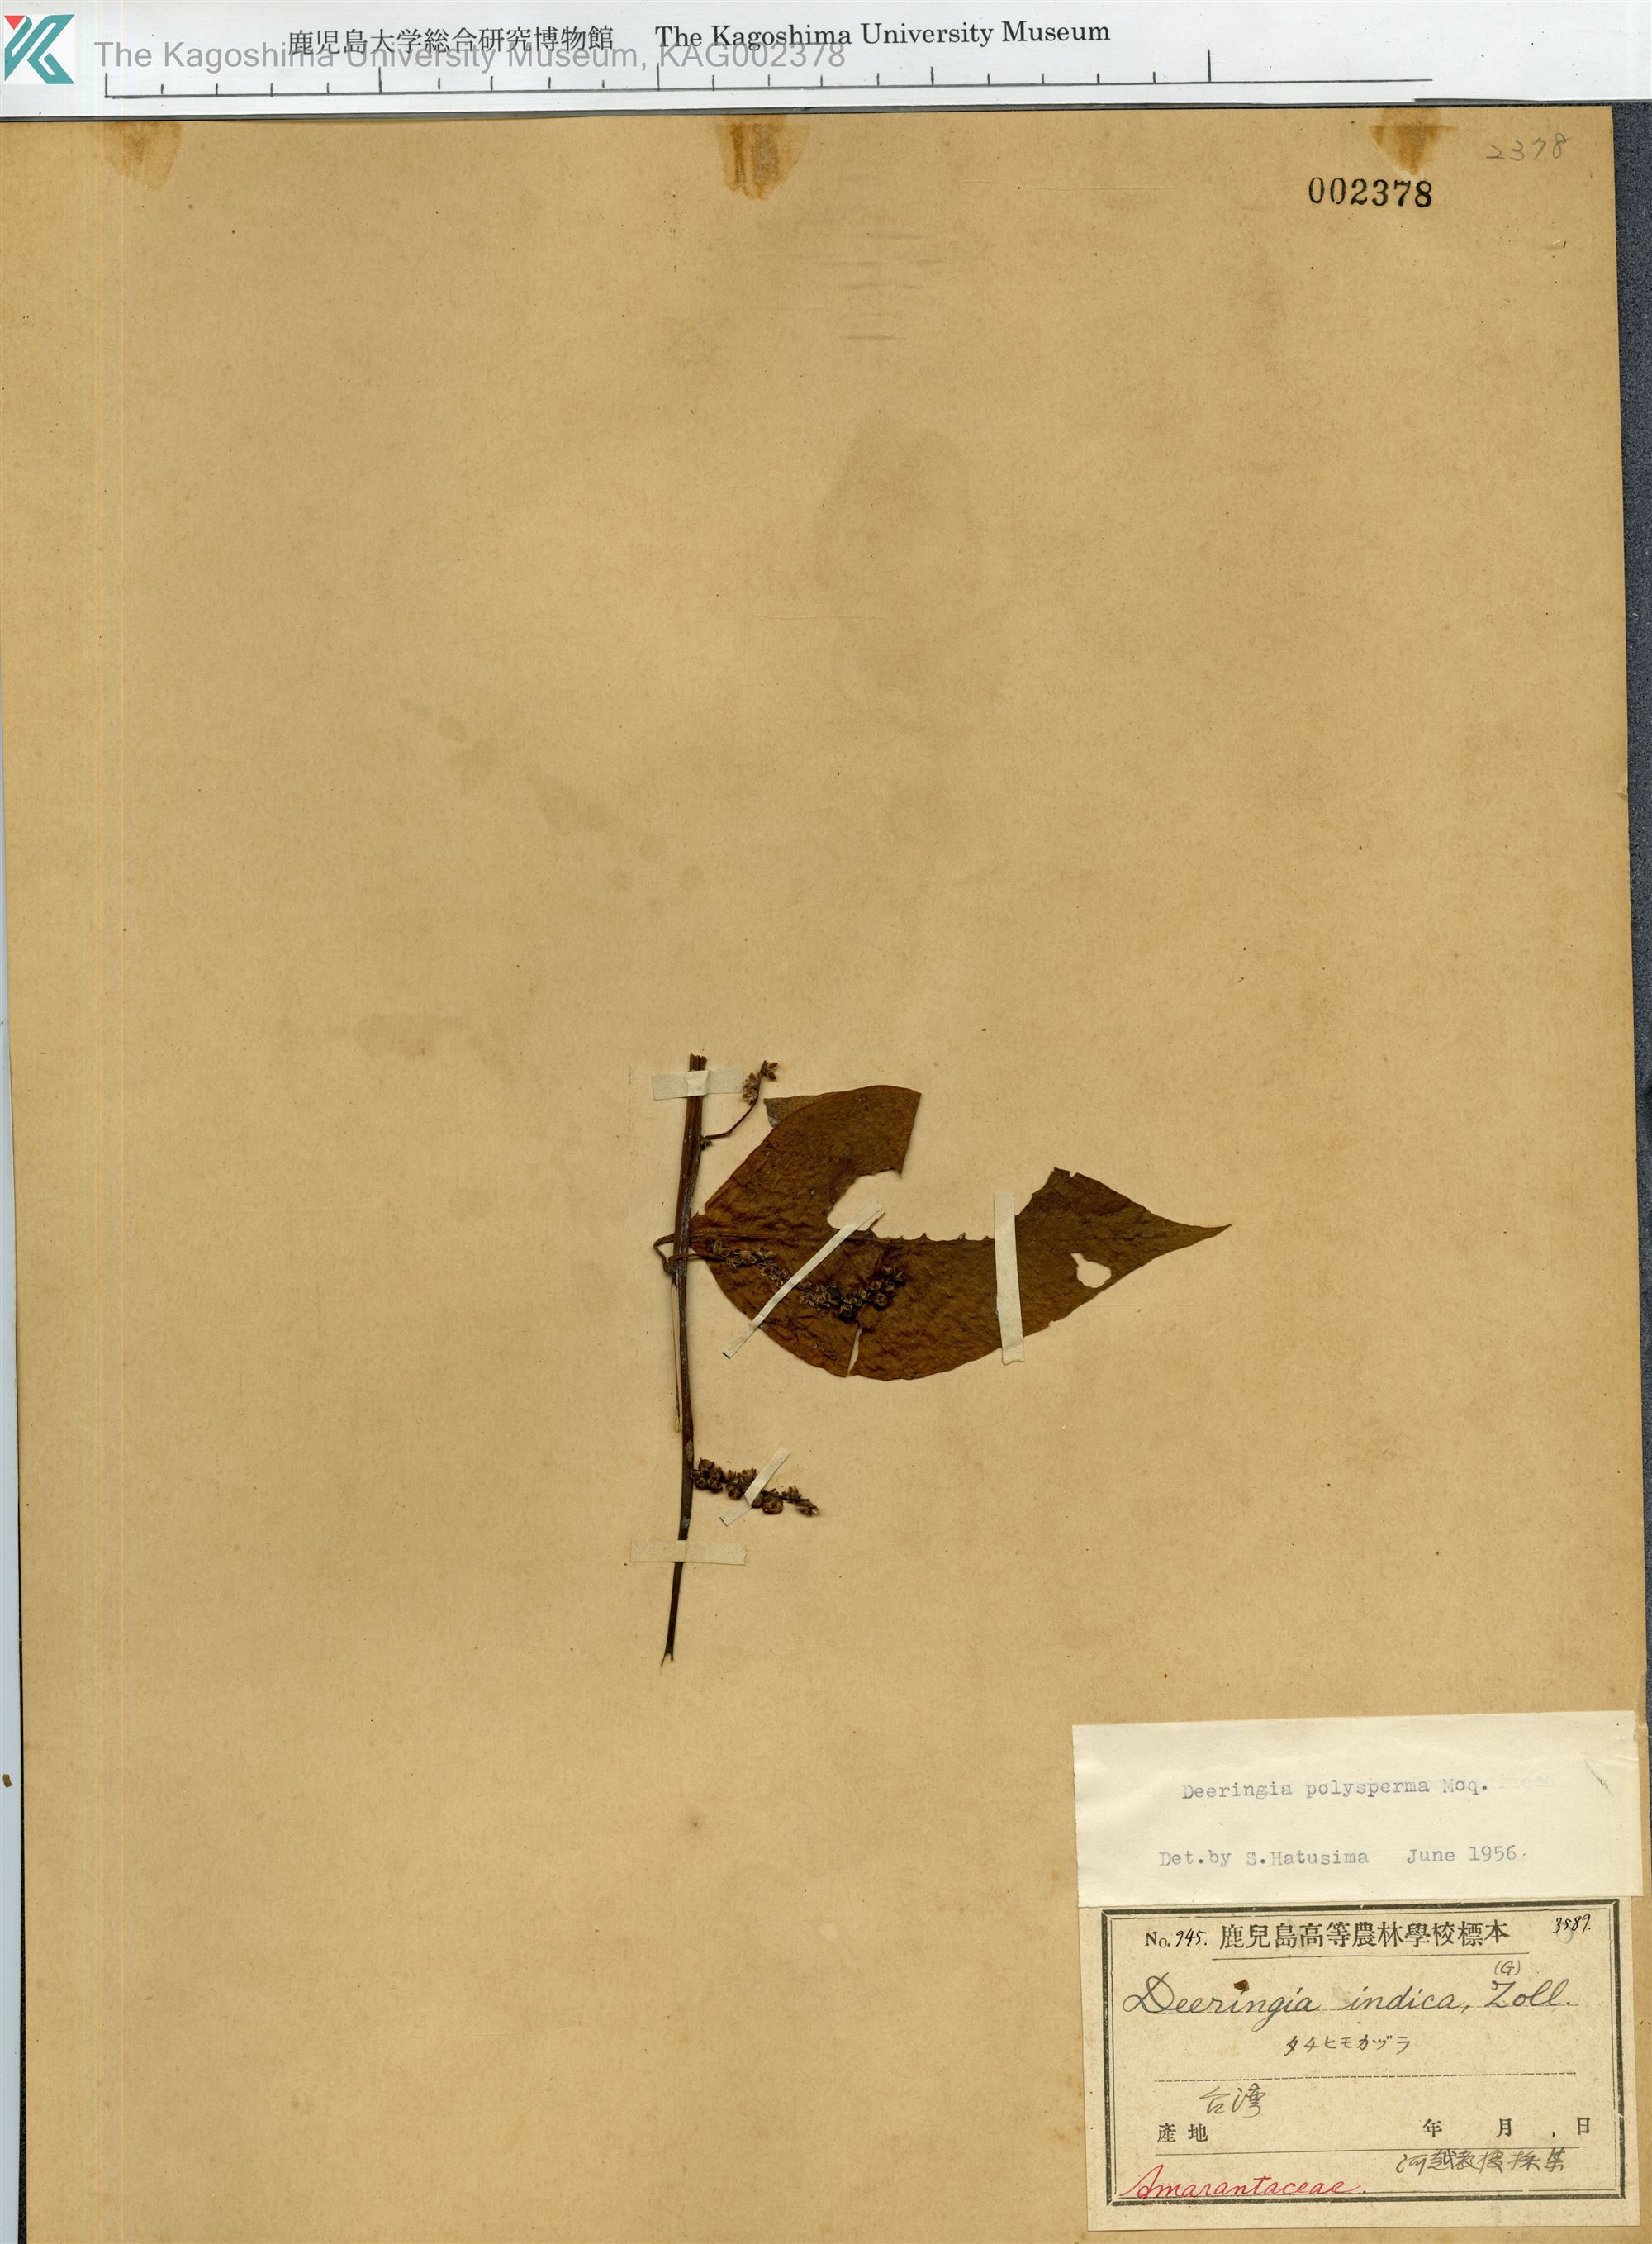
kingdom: Plantae
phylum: Tracheophyta
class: Magnoliopsida
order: Caryophyllales
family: Amaranthaceae
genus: Deeringia
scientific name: Deeringia polysperma
